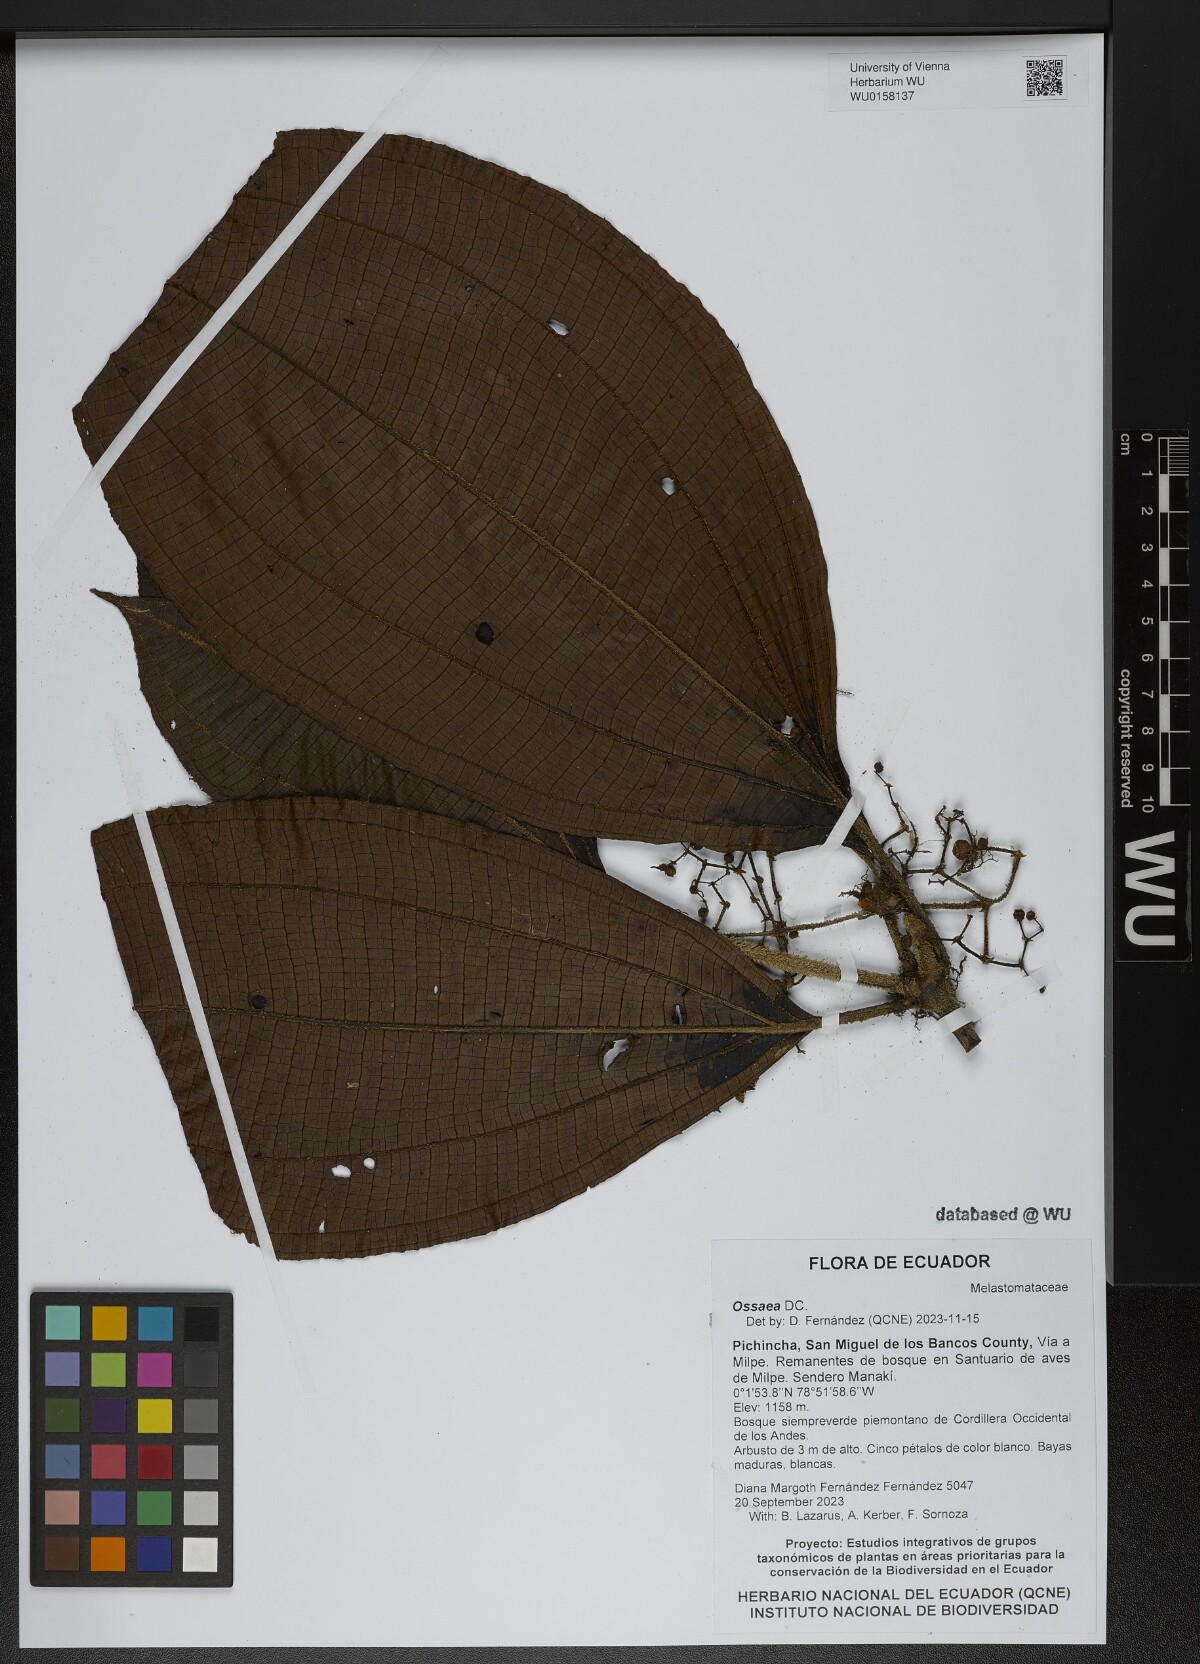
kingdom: Plantae
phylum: Tracheophyta
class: Magnoliopsida
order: Myrtales
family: Melastomataceae
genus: Ossaea
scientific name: Ossaea
